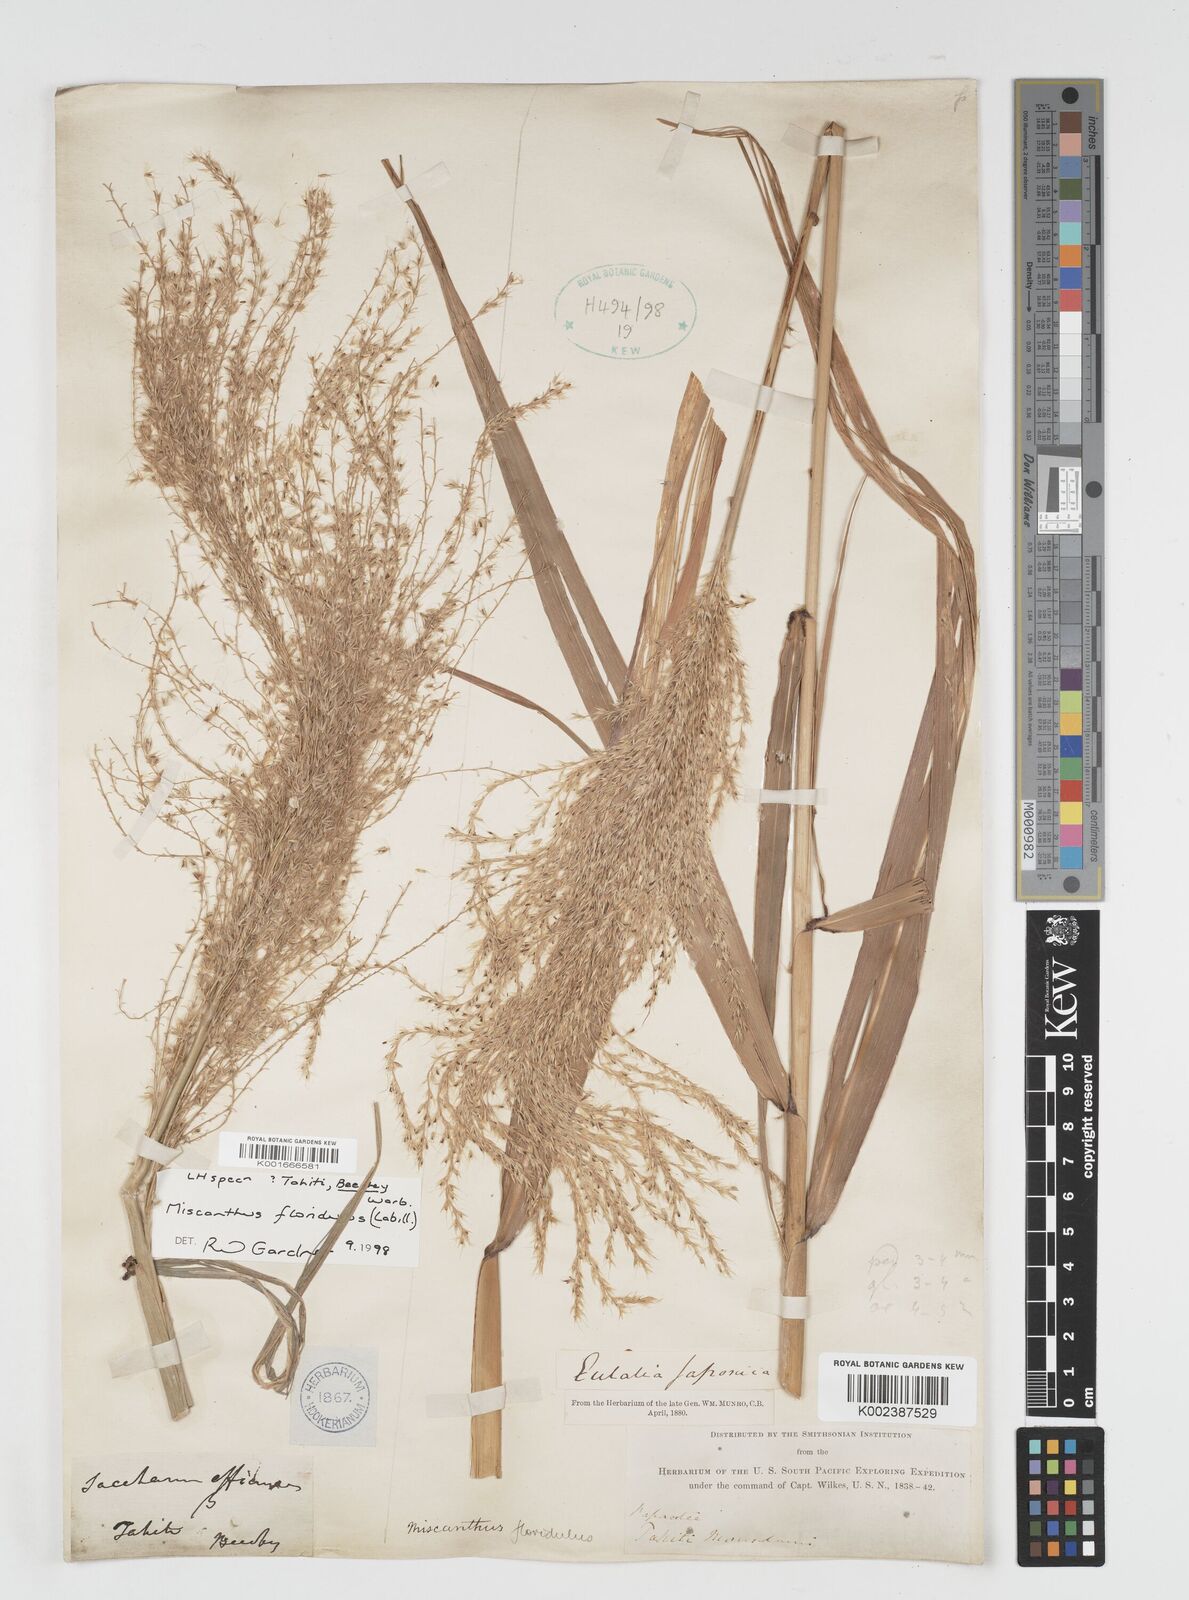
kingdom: Plantae
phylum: Tracheophyta
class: Liliopsida
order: Poales
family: Poaceae
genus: Miscanthus
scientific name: Miscanthus floridulus
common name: Pacific island silvergrass
